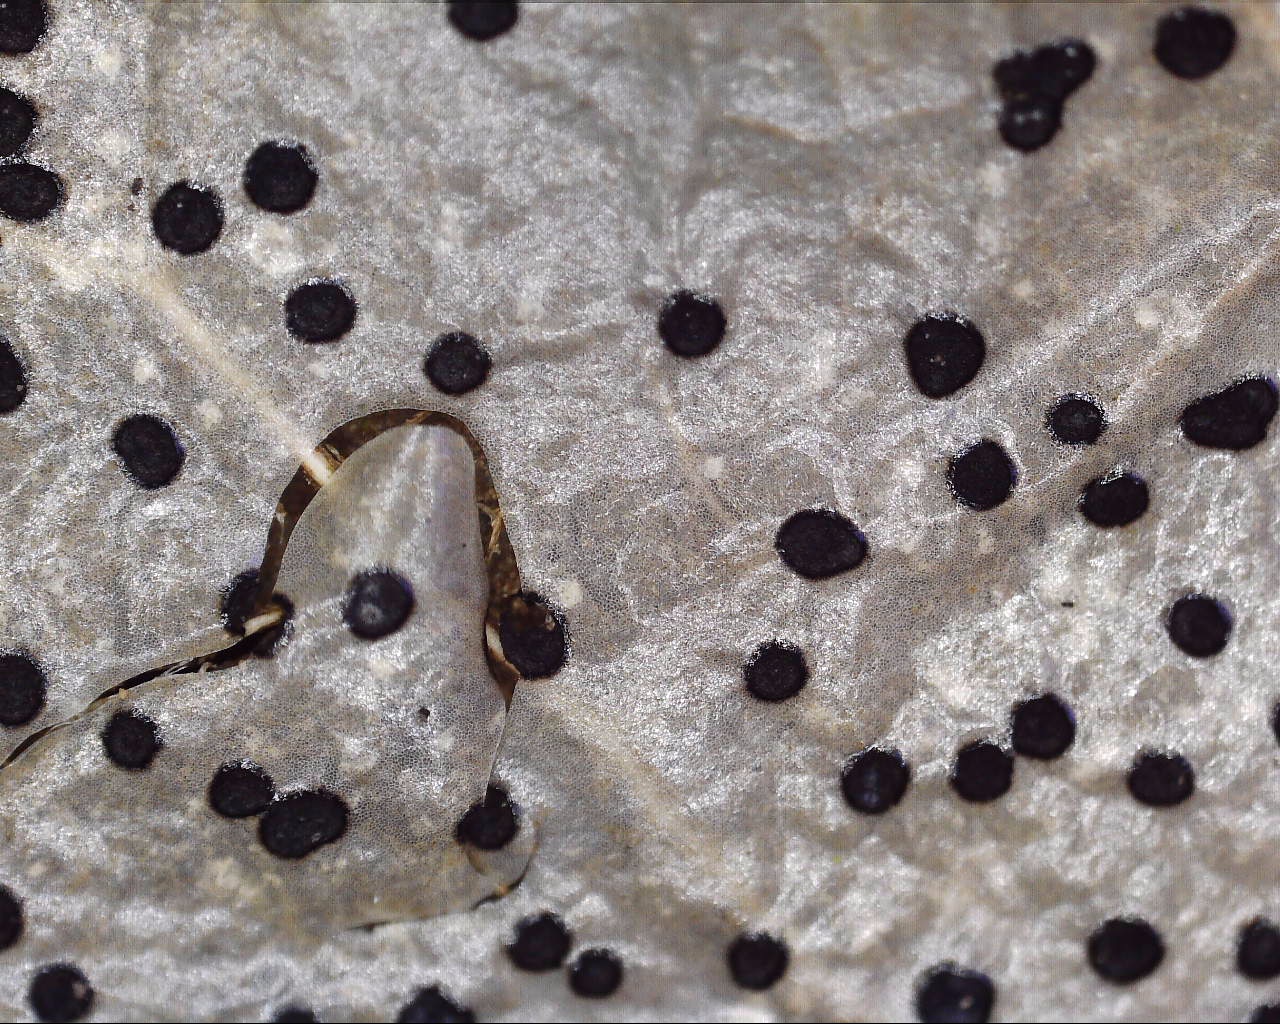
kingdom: Fungi
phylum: Ascomycota
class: Leotiomycetes
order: Helotiales
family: Cenangiaceae
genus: Trochila
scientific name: Trochila ilicina
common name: kristtorn-lågskive
